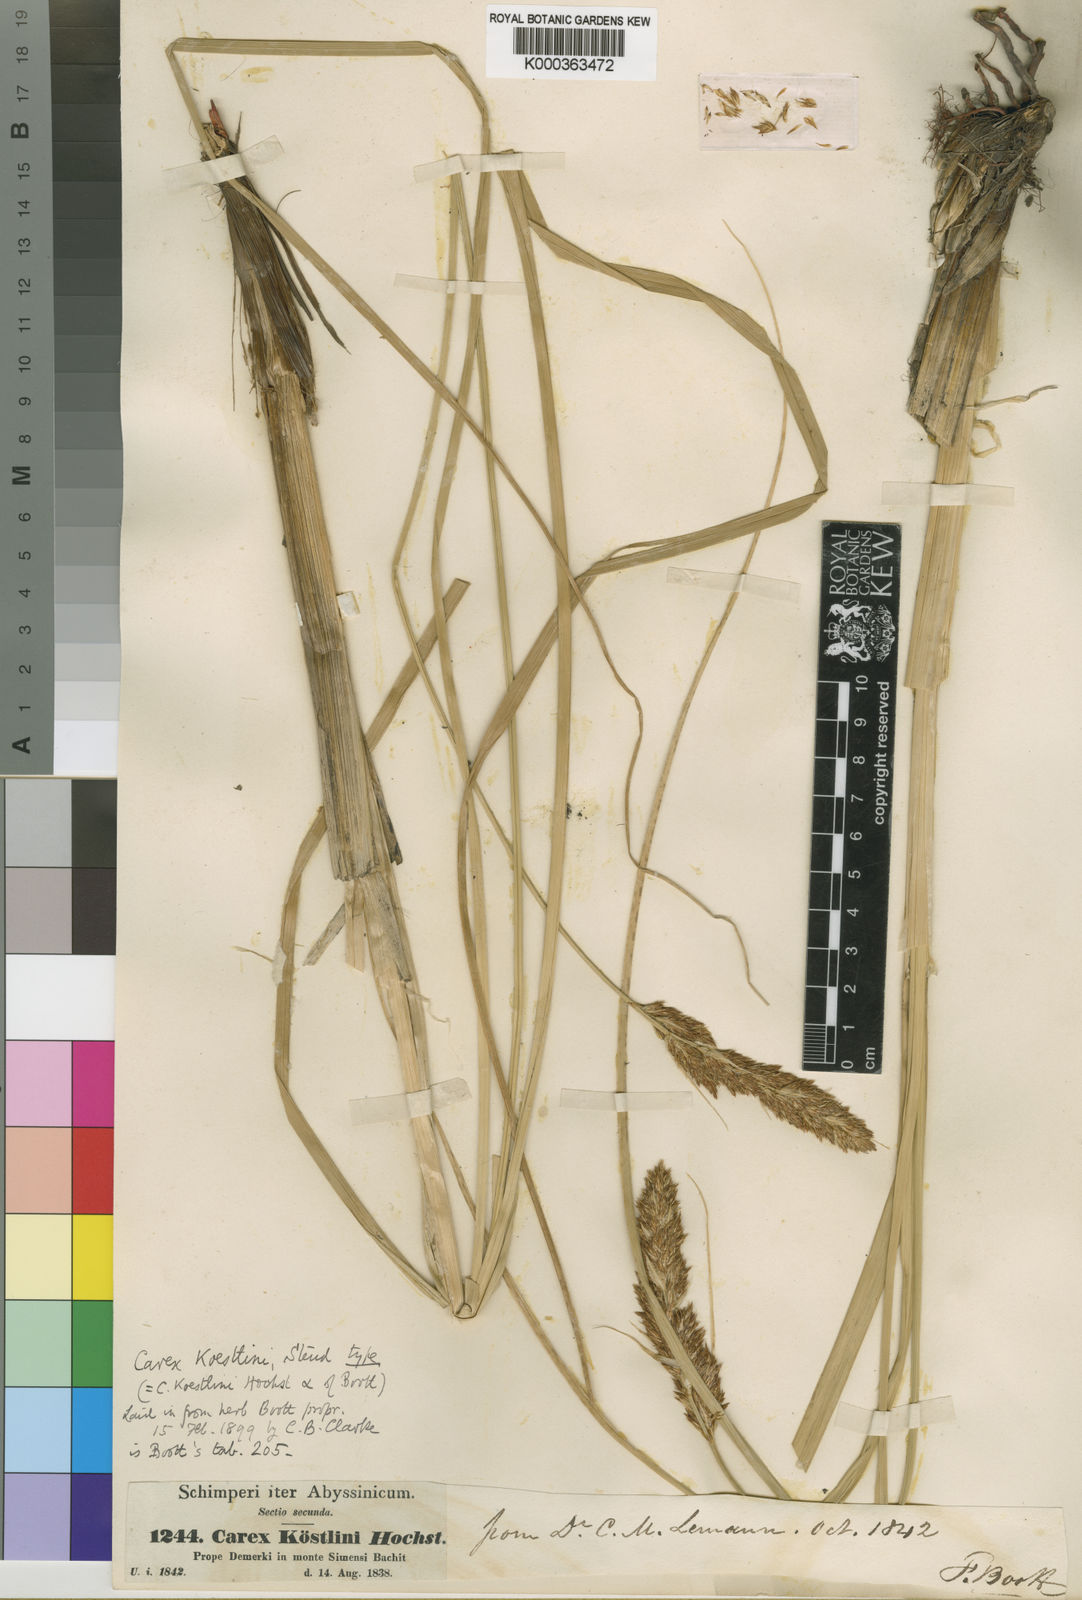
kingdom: Plantae
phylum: Tracheophyta
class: Liliopsida
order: Poales
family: Cyperaceae
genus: Carex
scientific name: Carex koestlinii
